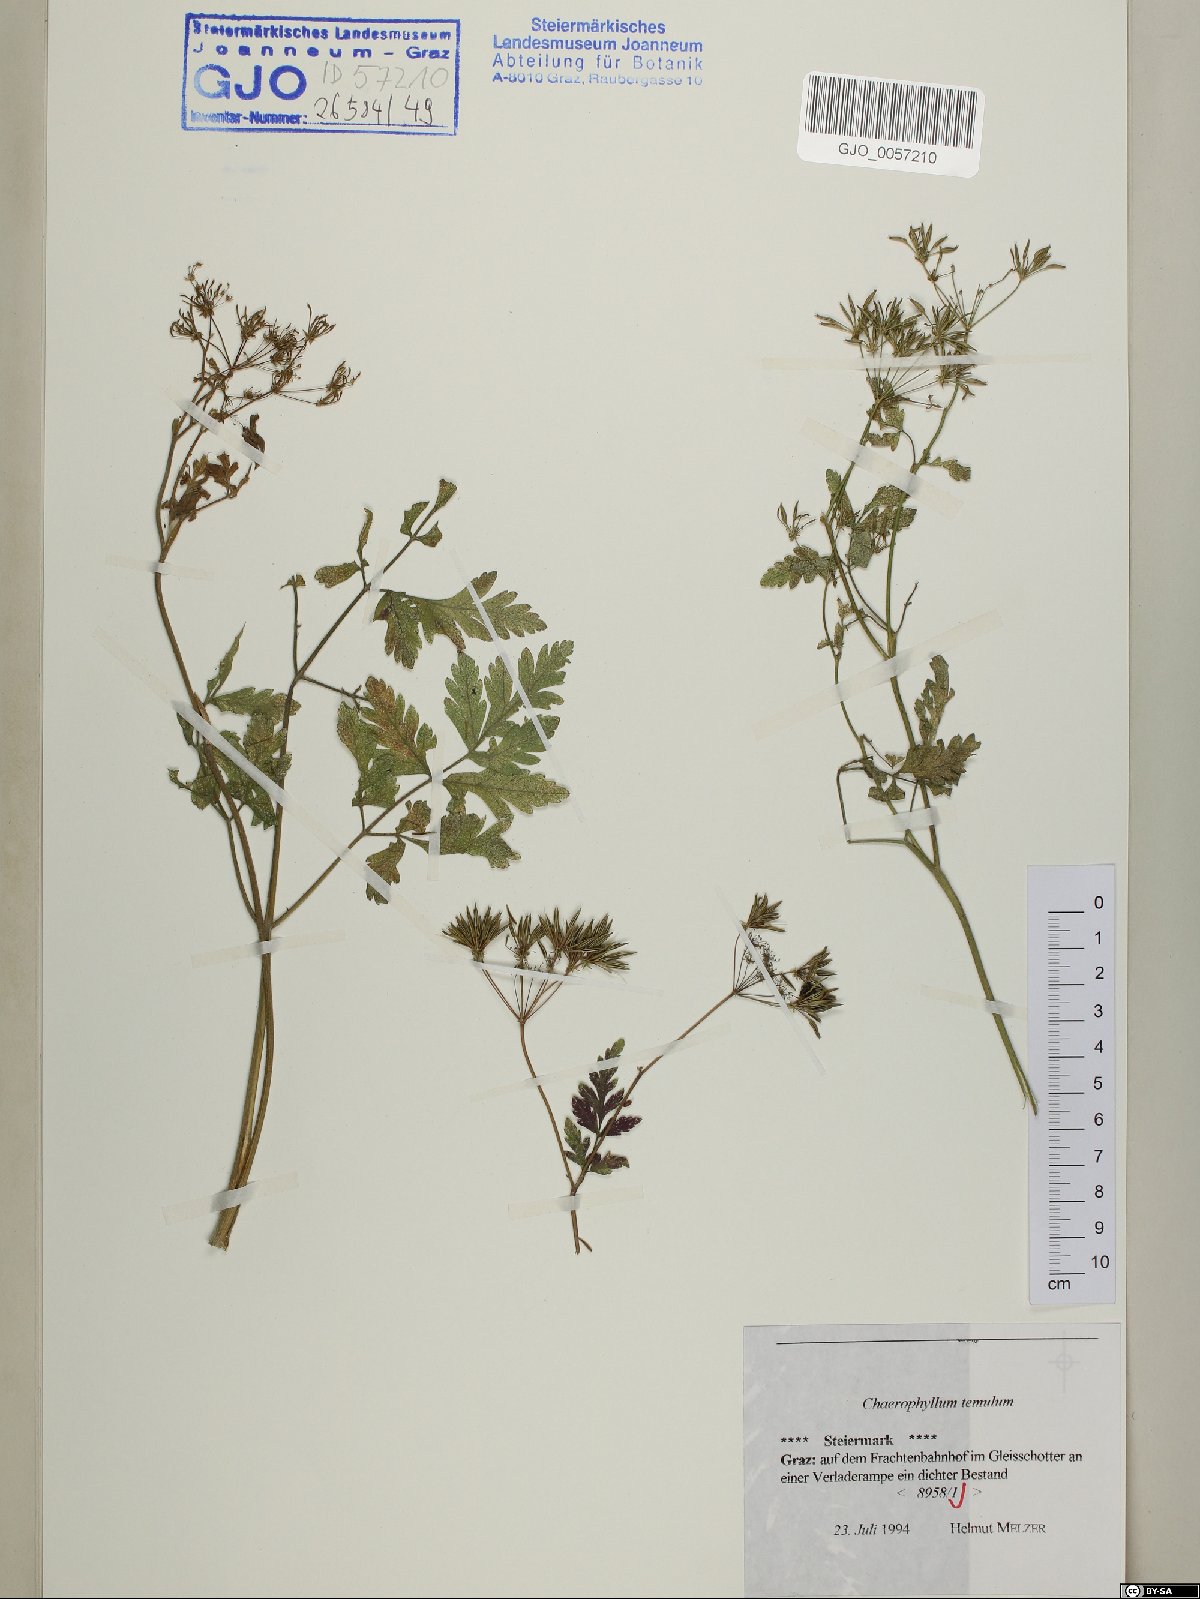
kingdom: Plantae
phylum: Tracheophyta
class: Magnoliopsida
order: Apiales
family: Apiaceae
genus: Chaerophyllum
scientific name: Chaerophyllum temulum
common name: Rough chervil
